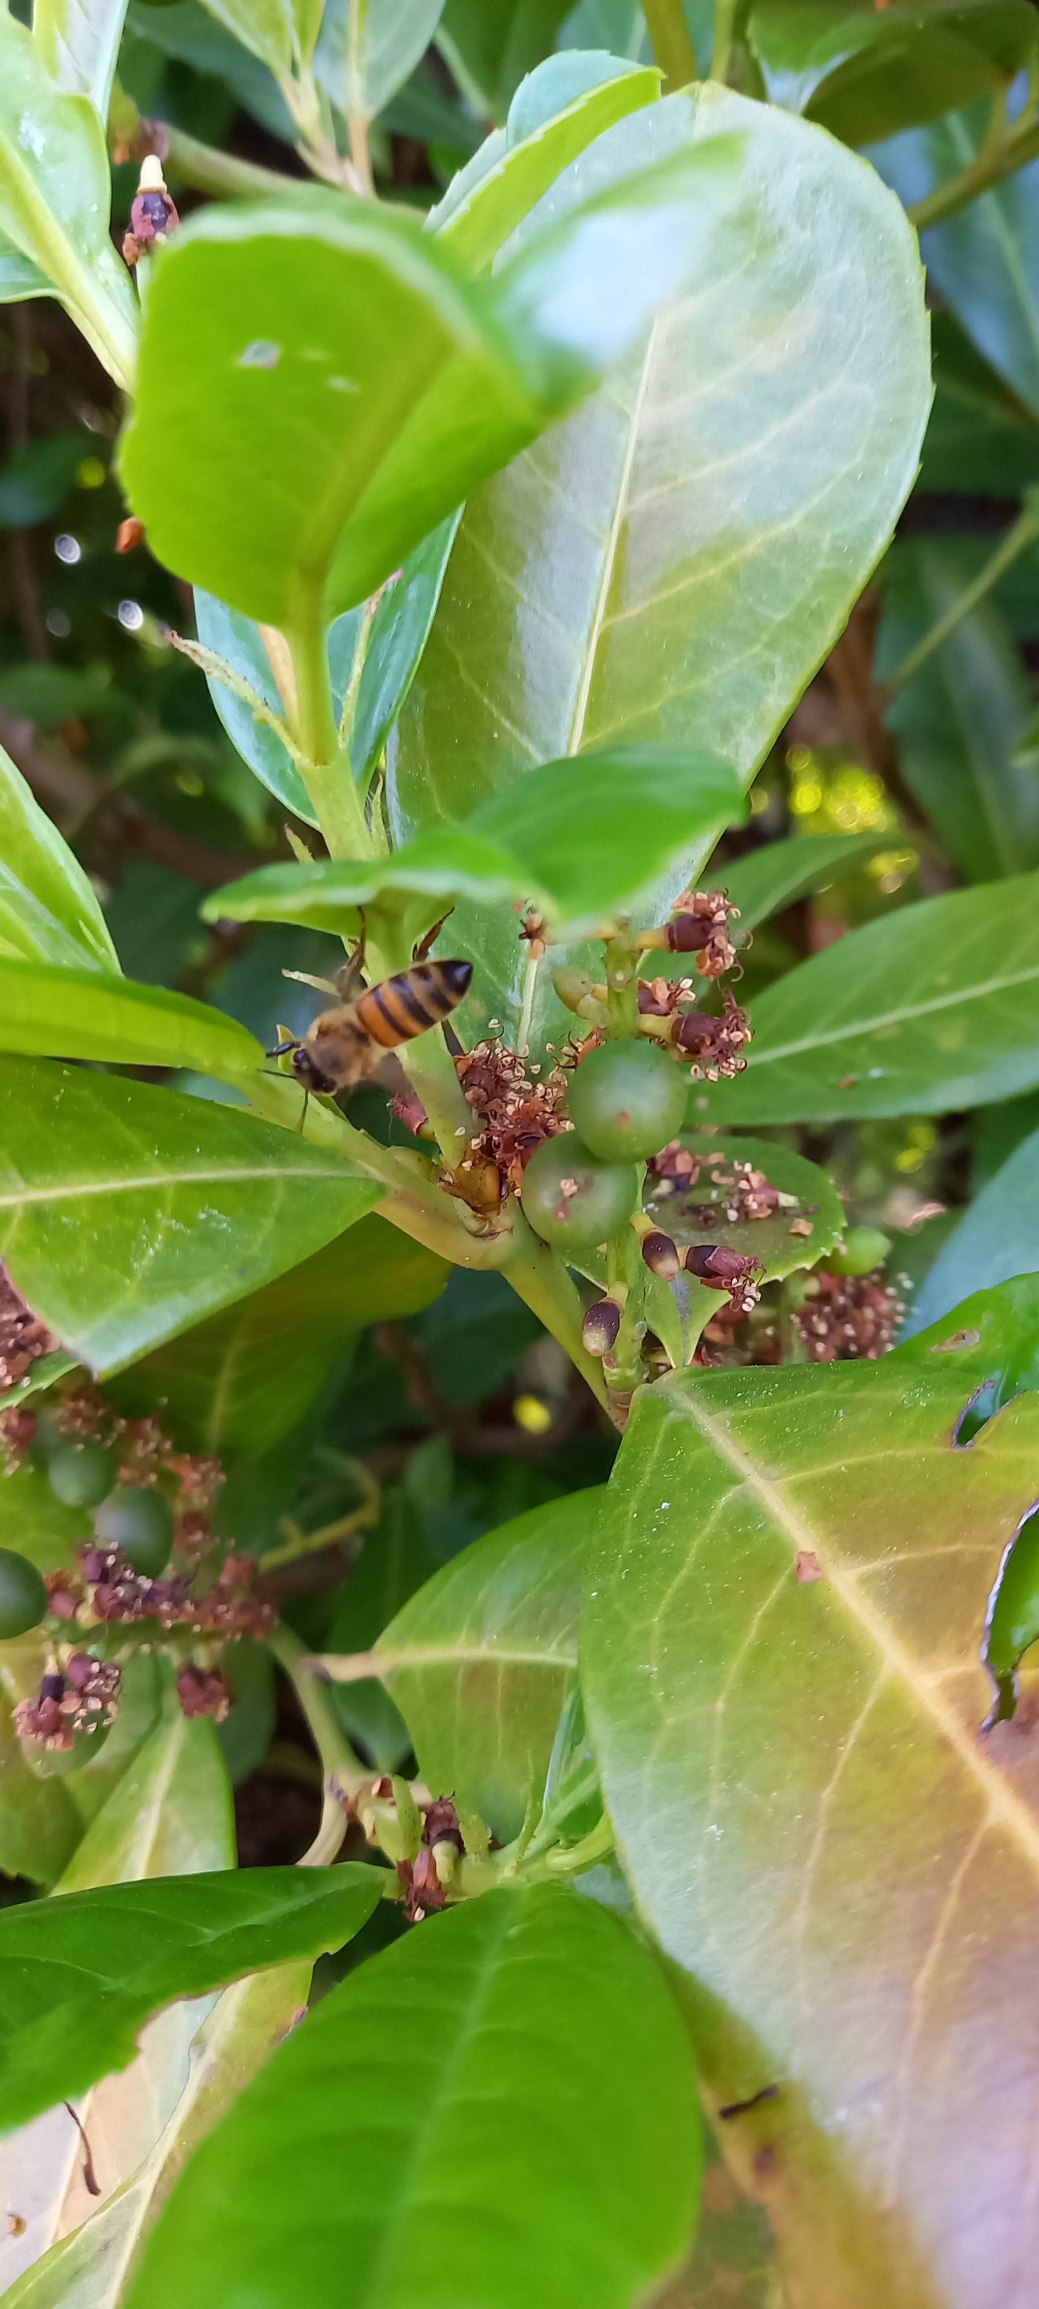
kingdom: Animalia
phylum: Arthropoda
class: Insecta
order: Hymenoptera
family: Apidae
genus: Apis
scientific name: Apis mellifera
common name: Honningbi
